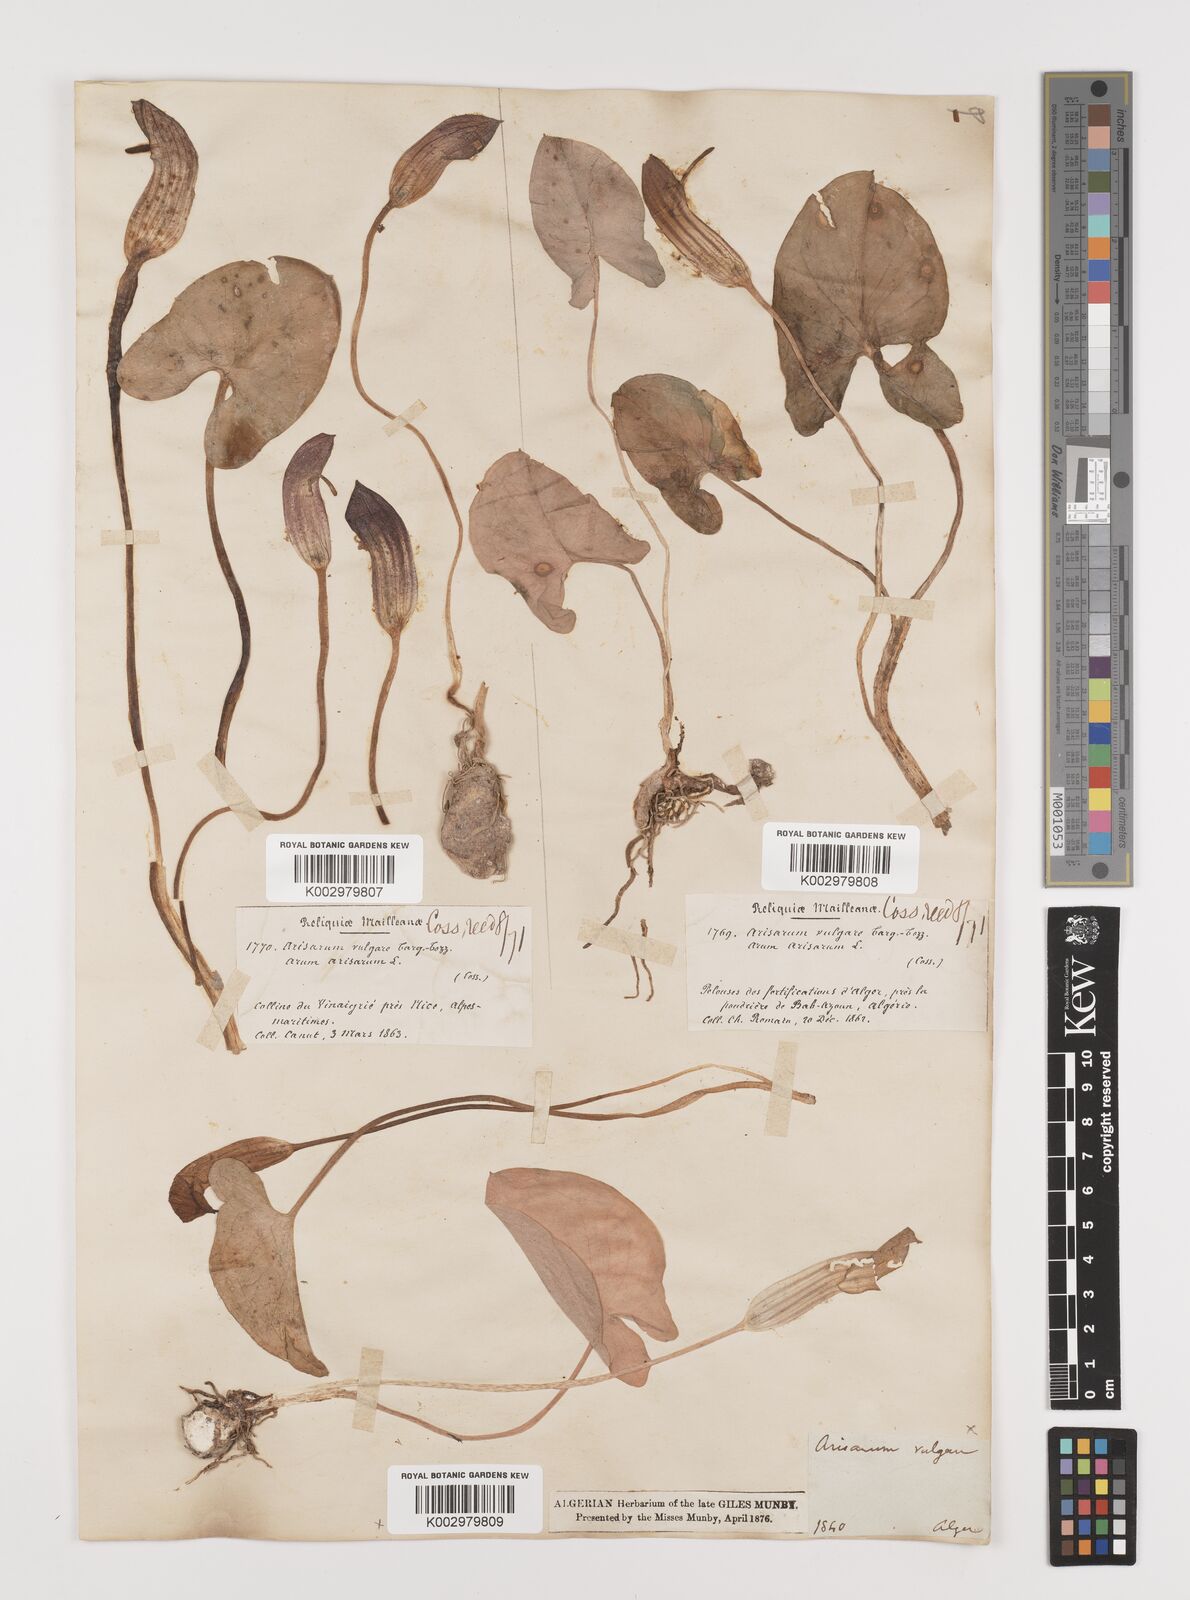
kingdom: Plantae
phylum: Tracheophyta
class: Liliopsida
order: Alismatales
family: Araceae
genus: Arisarum
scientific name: Arisarum vulgare
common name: Common arisarum
